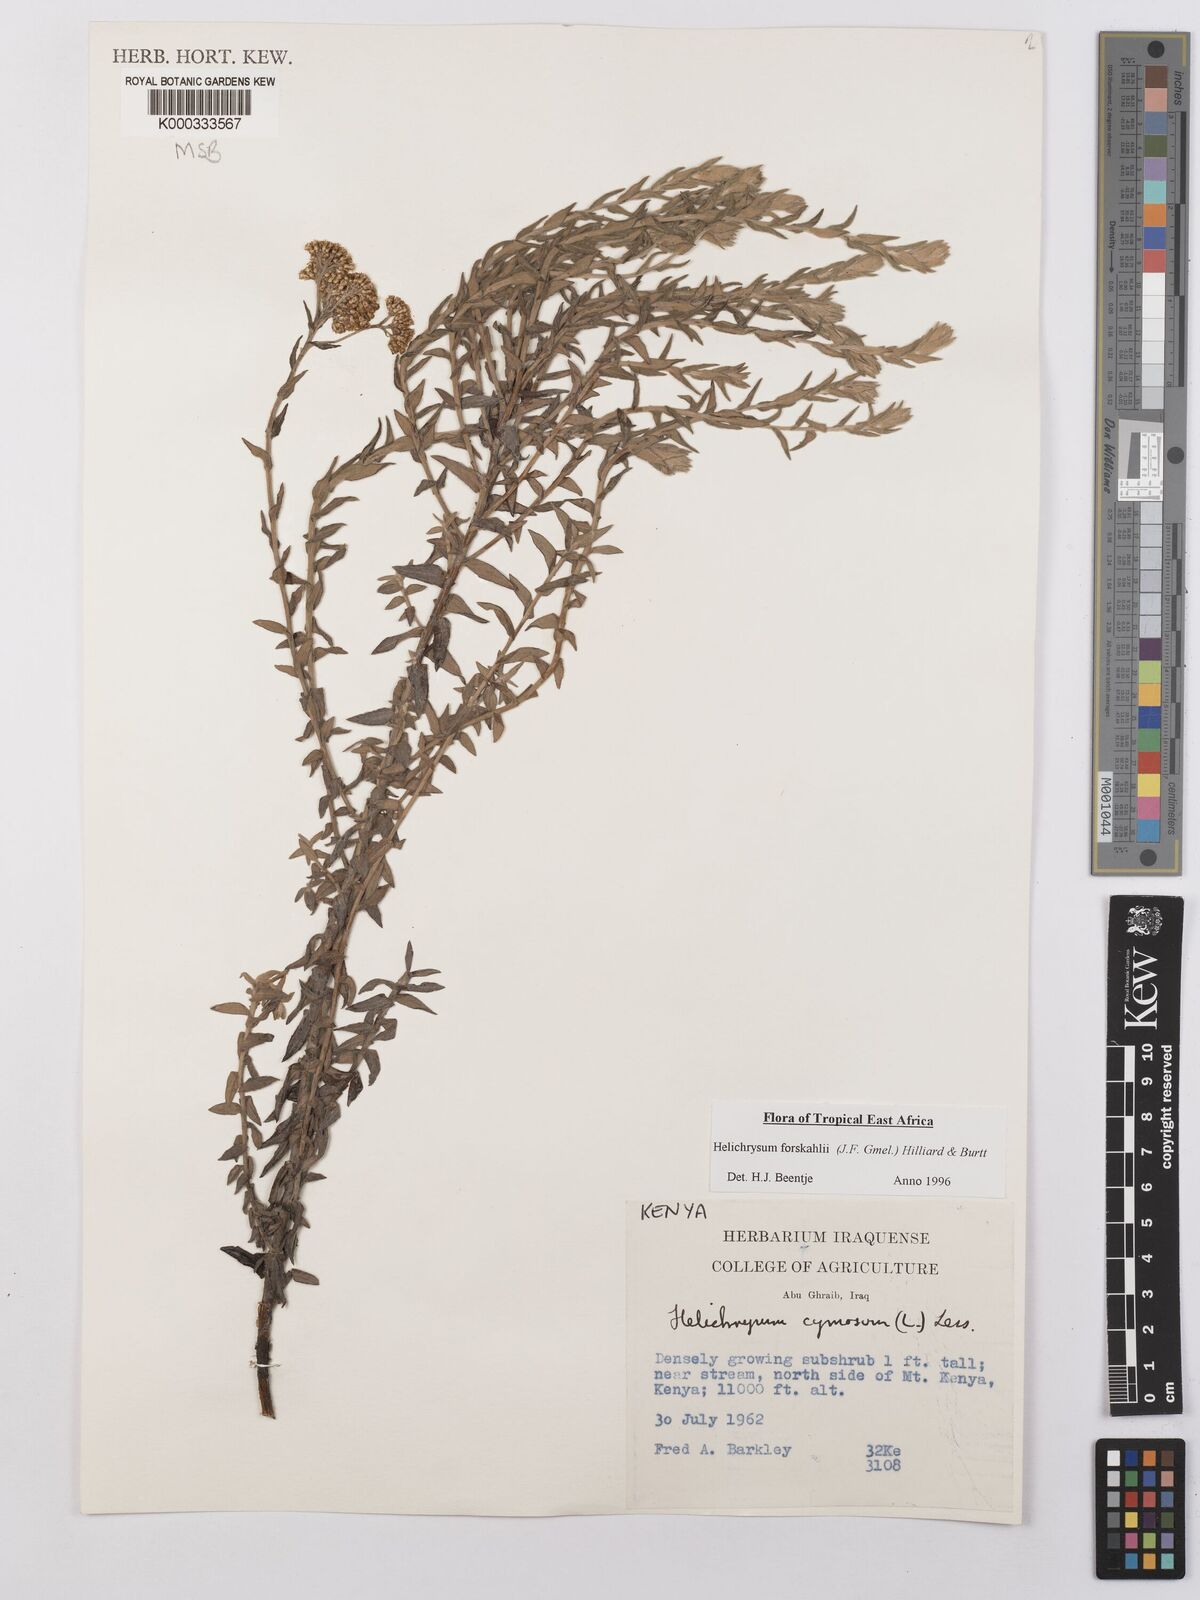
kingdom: Plantae
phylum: Tracheophyta
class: Magnoliopsida
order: Asterales
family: Asteraceae
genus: Helichrysum
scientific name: Helichrysum
